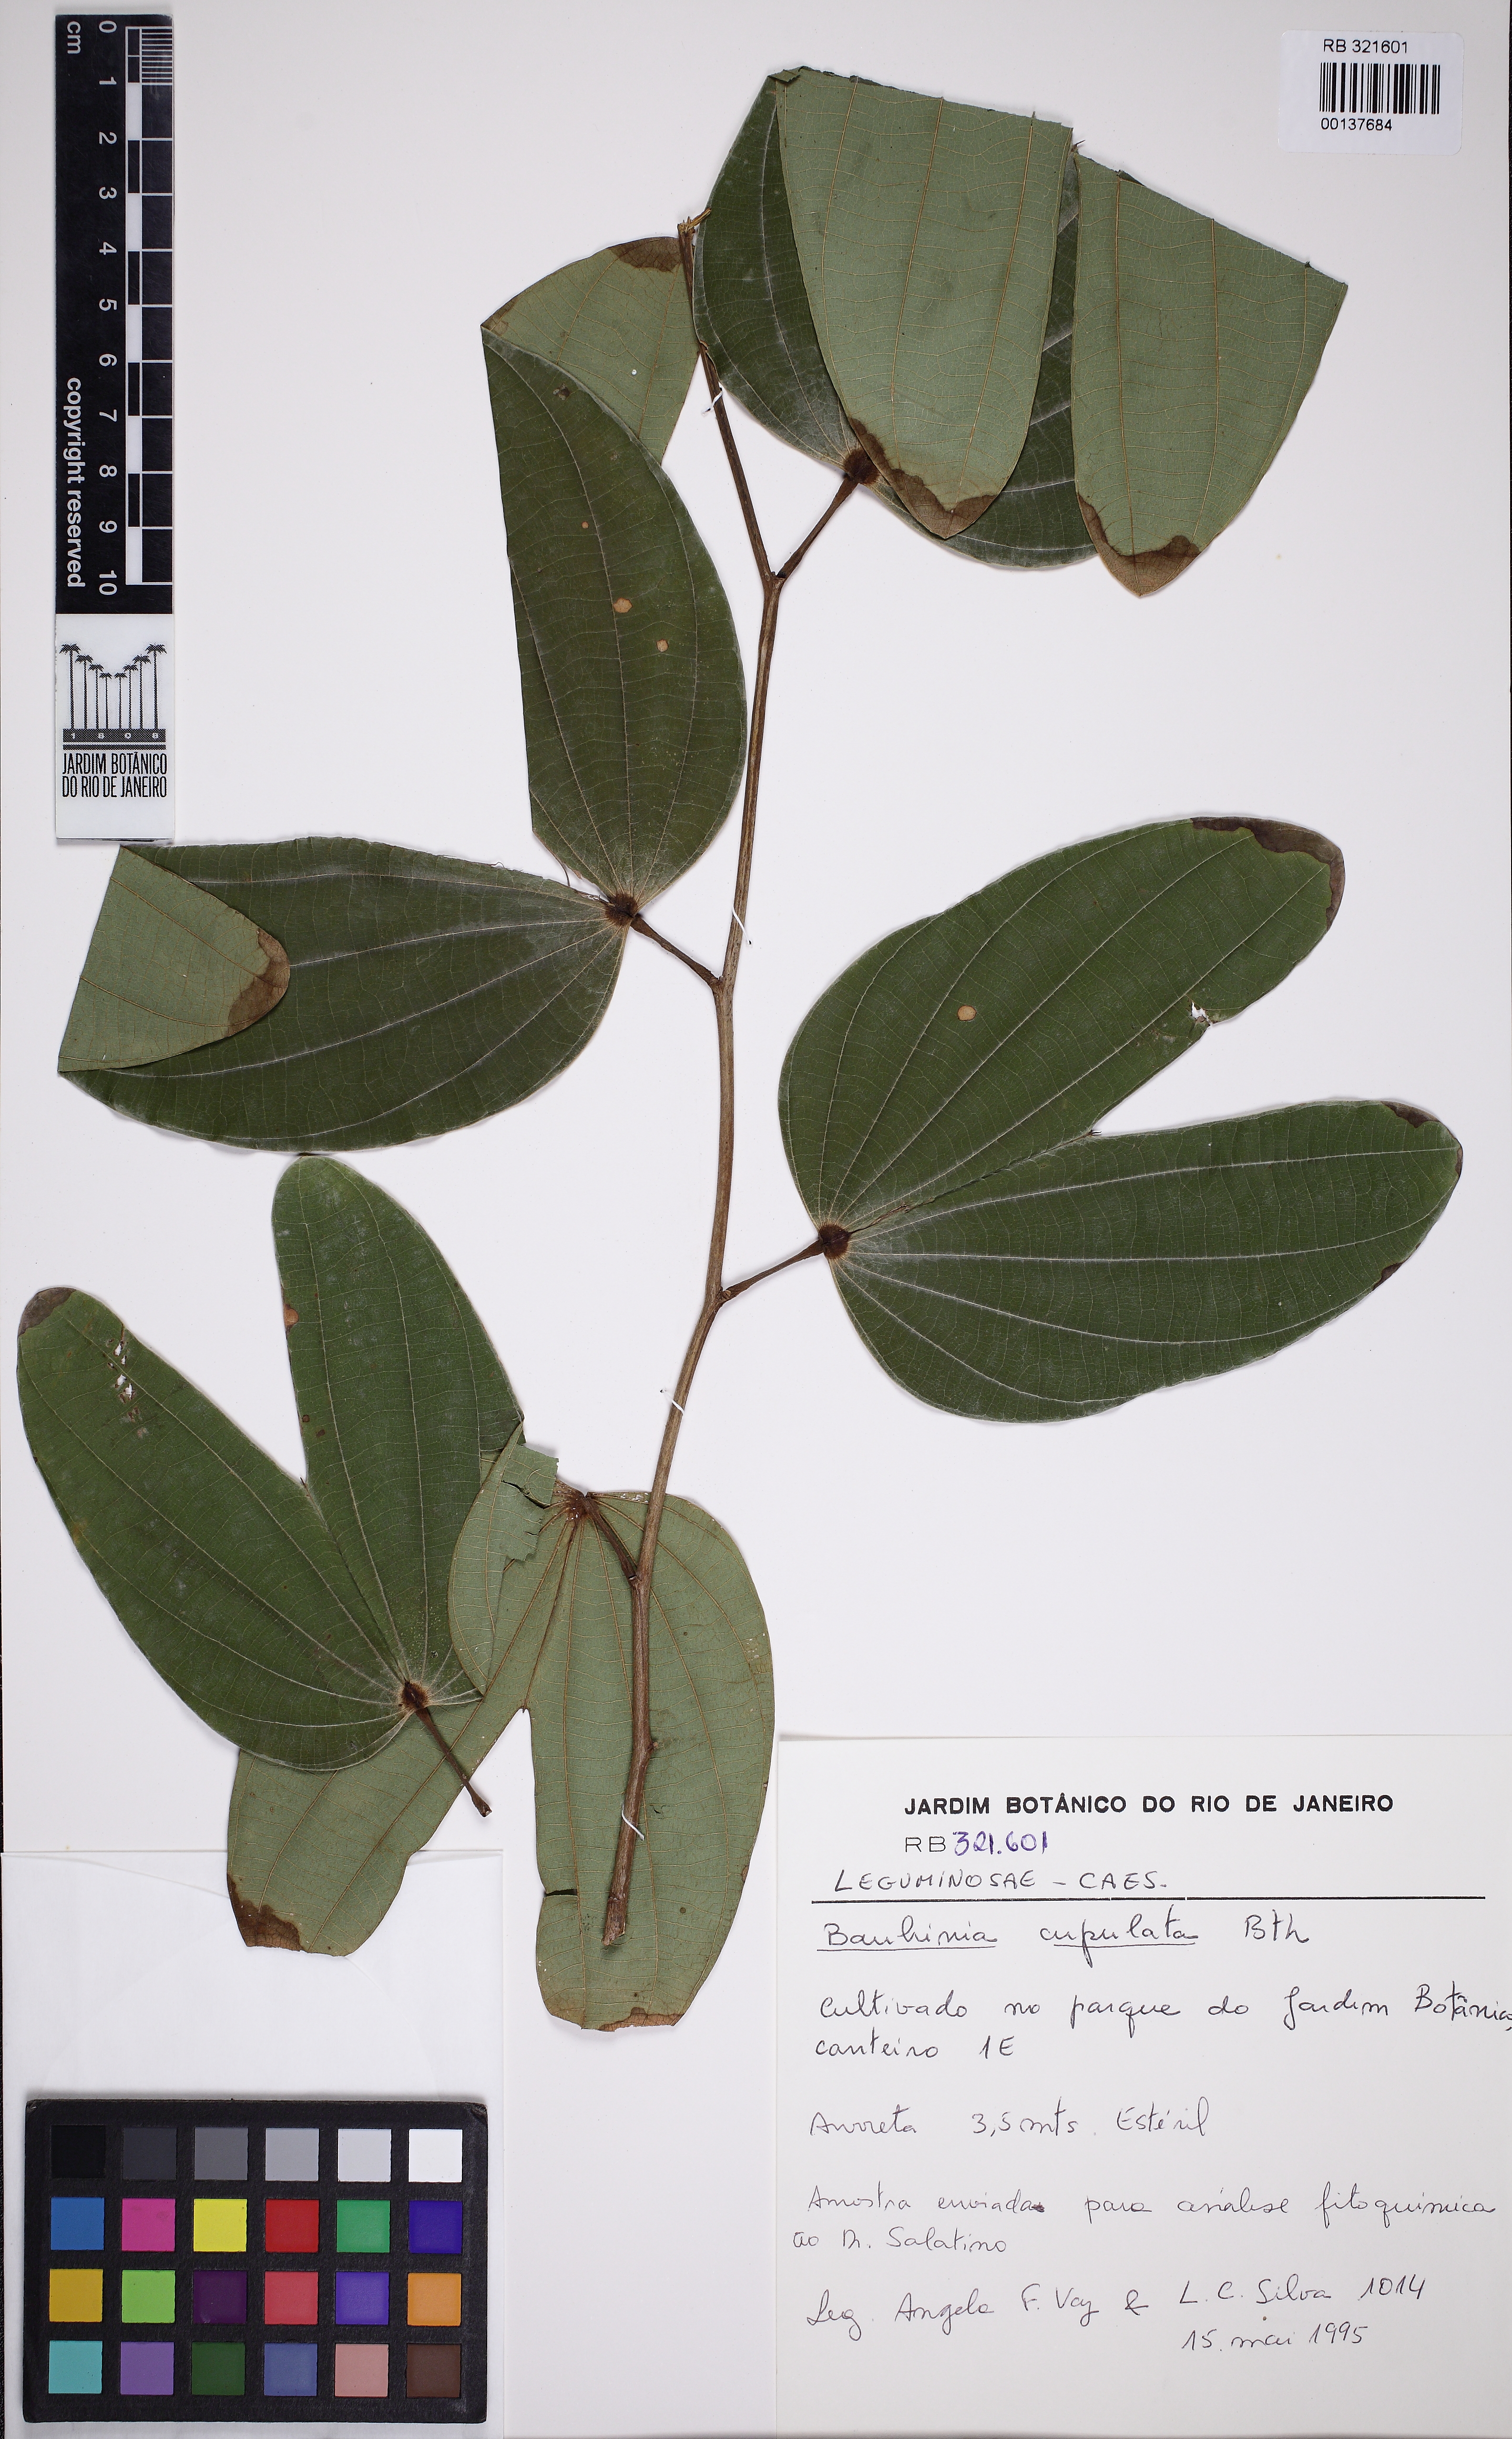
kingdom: Plantae
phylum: Tracheophyta
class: Magnoliopsida
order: Fabales
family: Fabaceae
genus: Bauhinia
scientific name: Bauhinia cupulata
